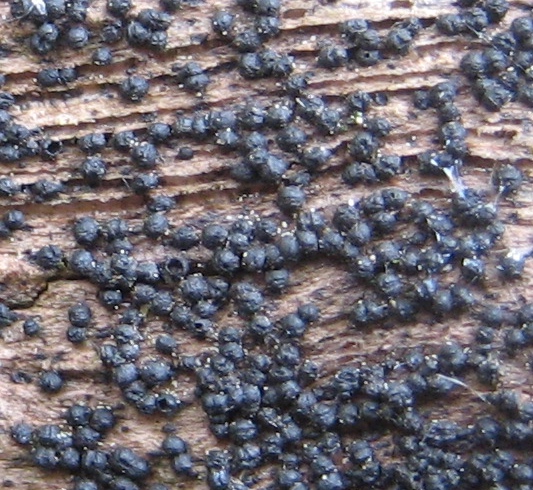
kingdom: Fungi
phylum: Ascomycota
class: Dothideomycetes
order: Pleosporales
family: Melanommataceae
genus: Melanomma
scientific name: Melanomma pulvis-pyrius
